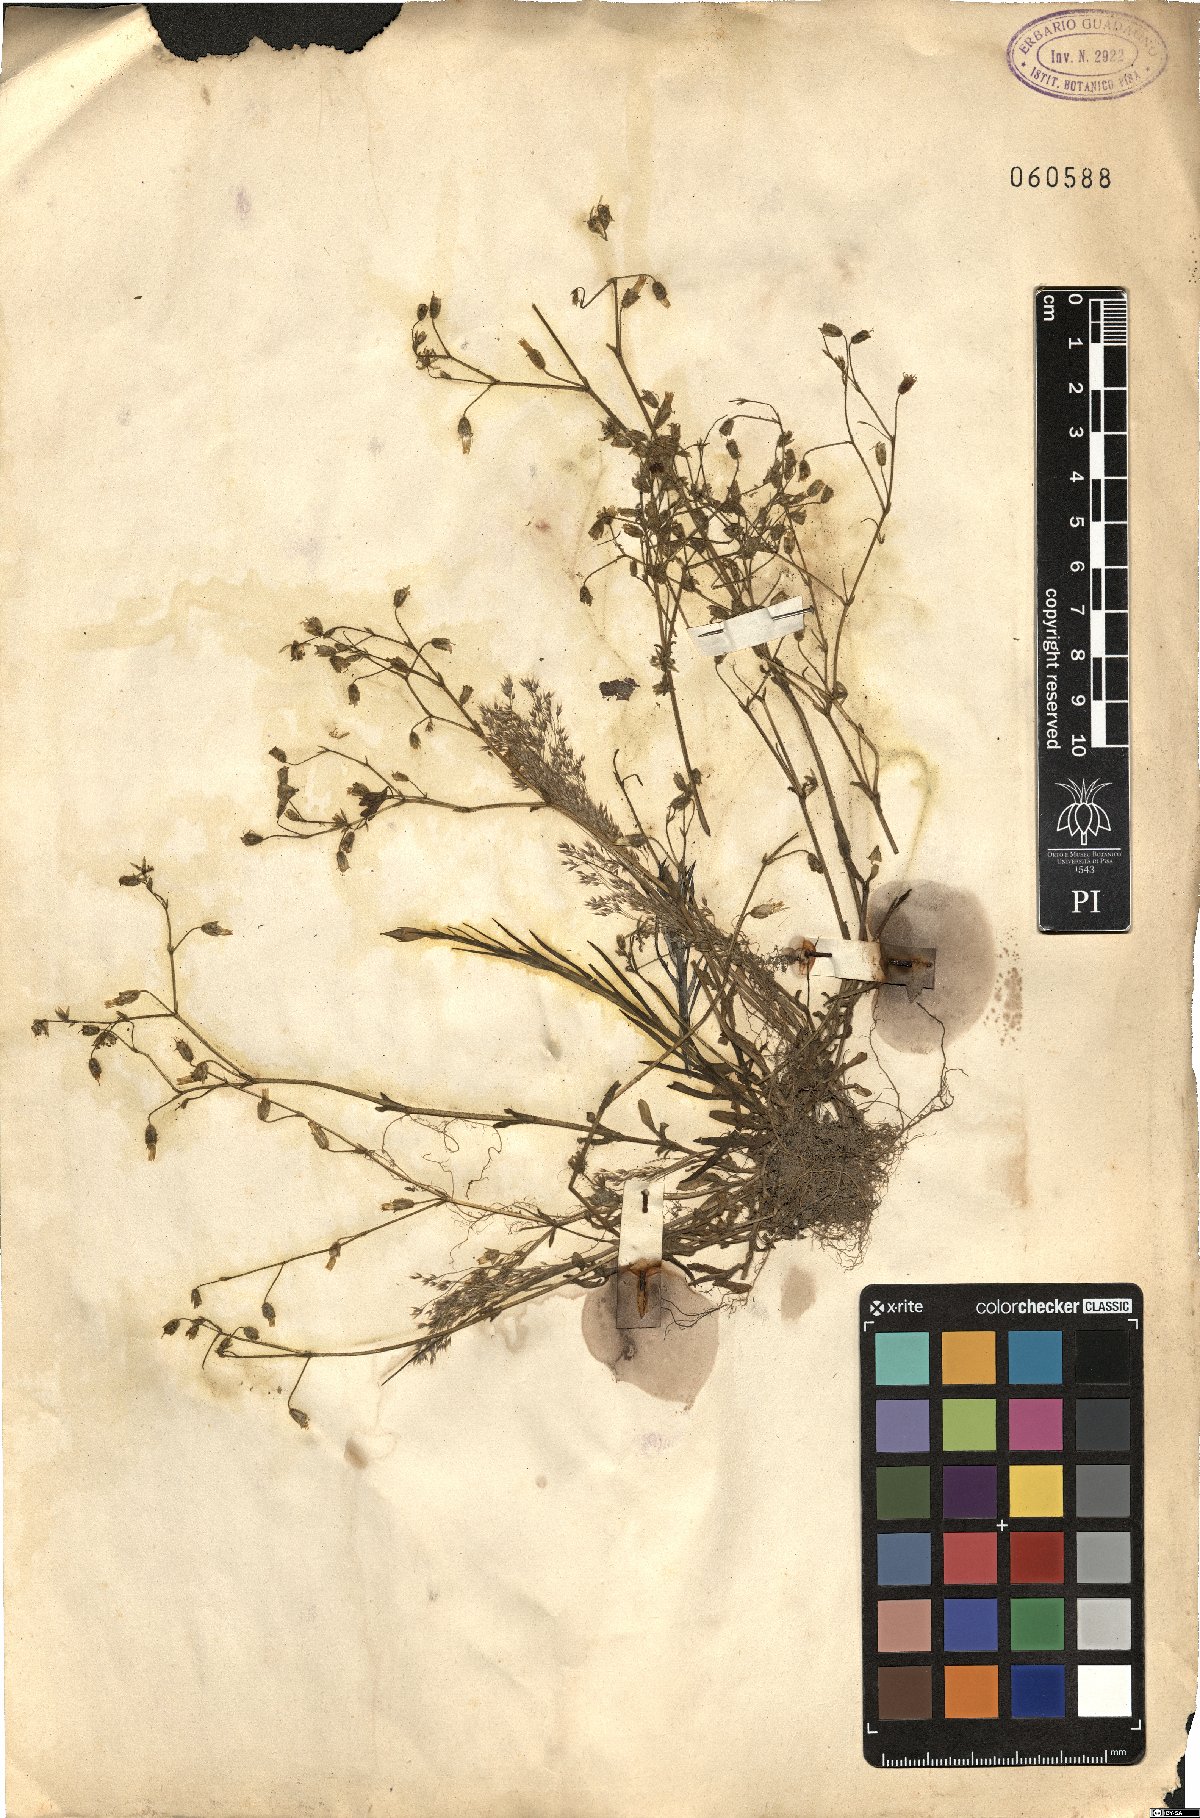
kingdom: Plantae
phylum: Tracheophyta
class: Magnoliopsida
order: Caryophyllales
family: Caryophyllaceae
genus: Cerastium
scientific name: Cerastium
